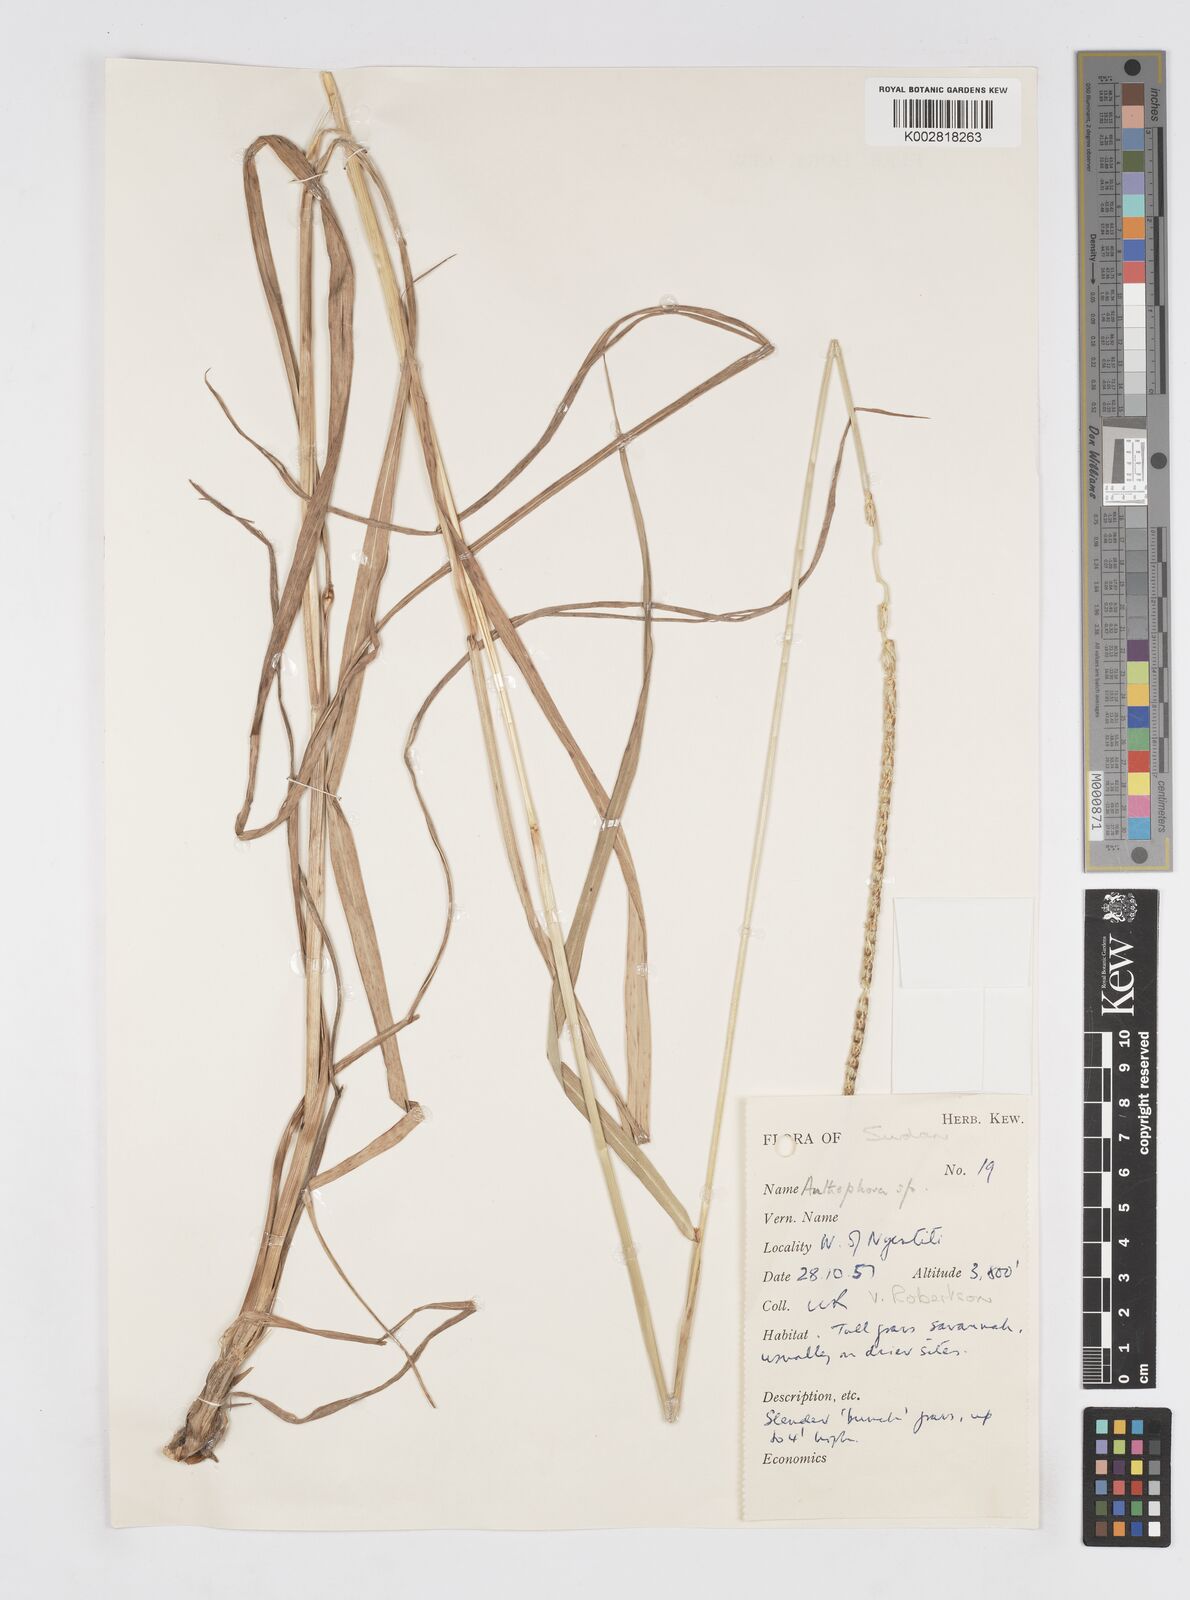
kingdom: Plantae
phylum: Tracheophyta
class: Liliopsida
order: Poales
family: Poaceae
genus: Anthephora
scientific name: Anthephora nigritana
